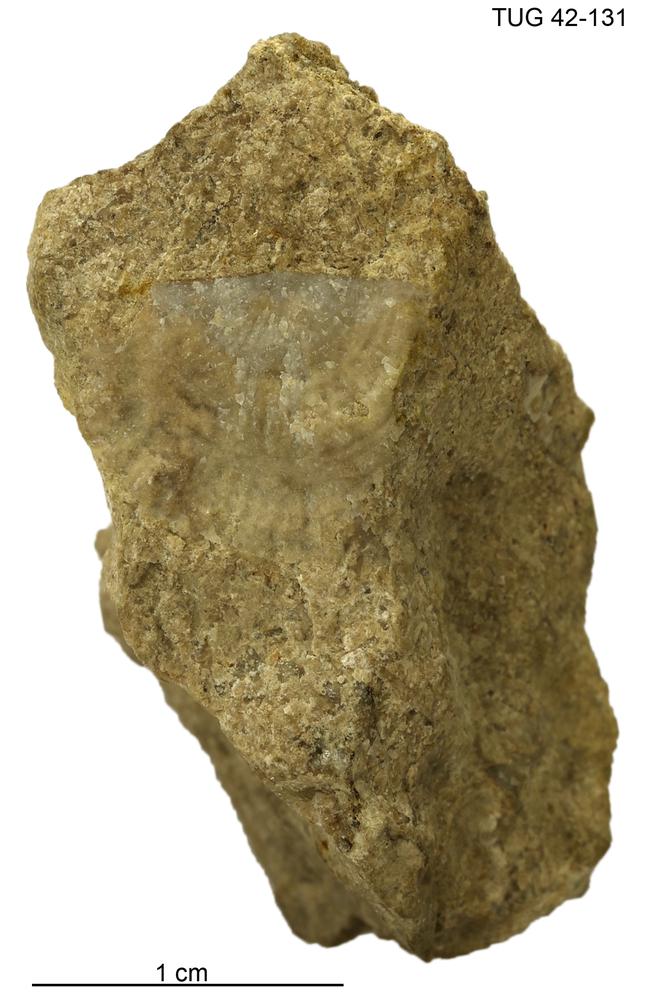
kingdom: Animalia
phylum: Brachiopoda
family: Strophomenidae
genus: Holtedahlina
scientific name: Holtedahlina
